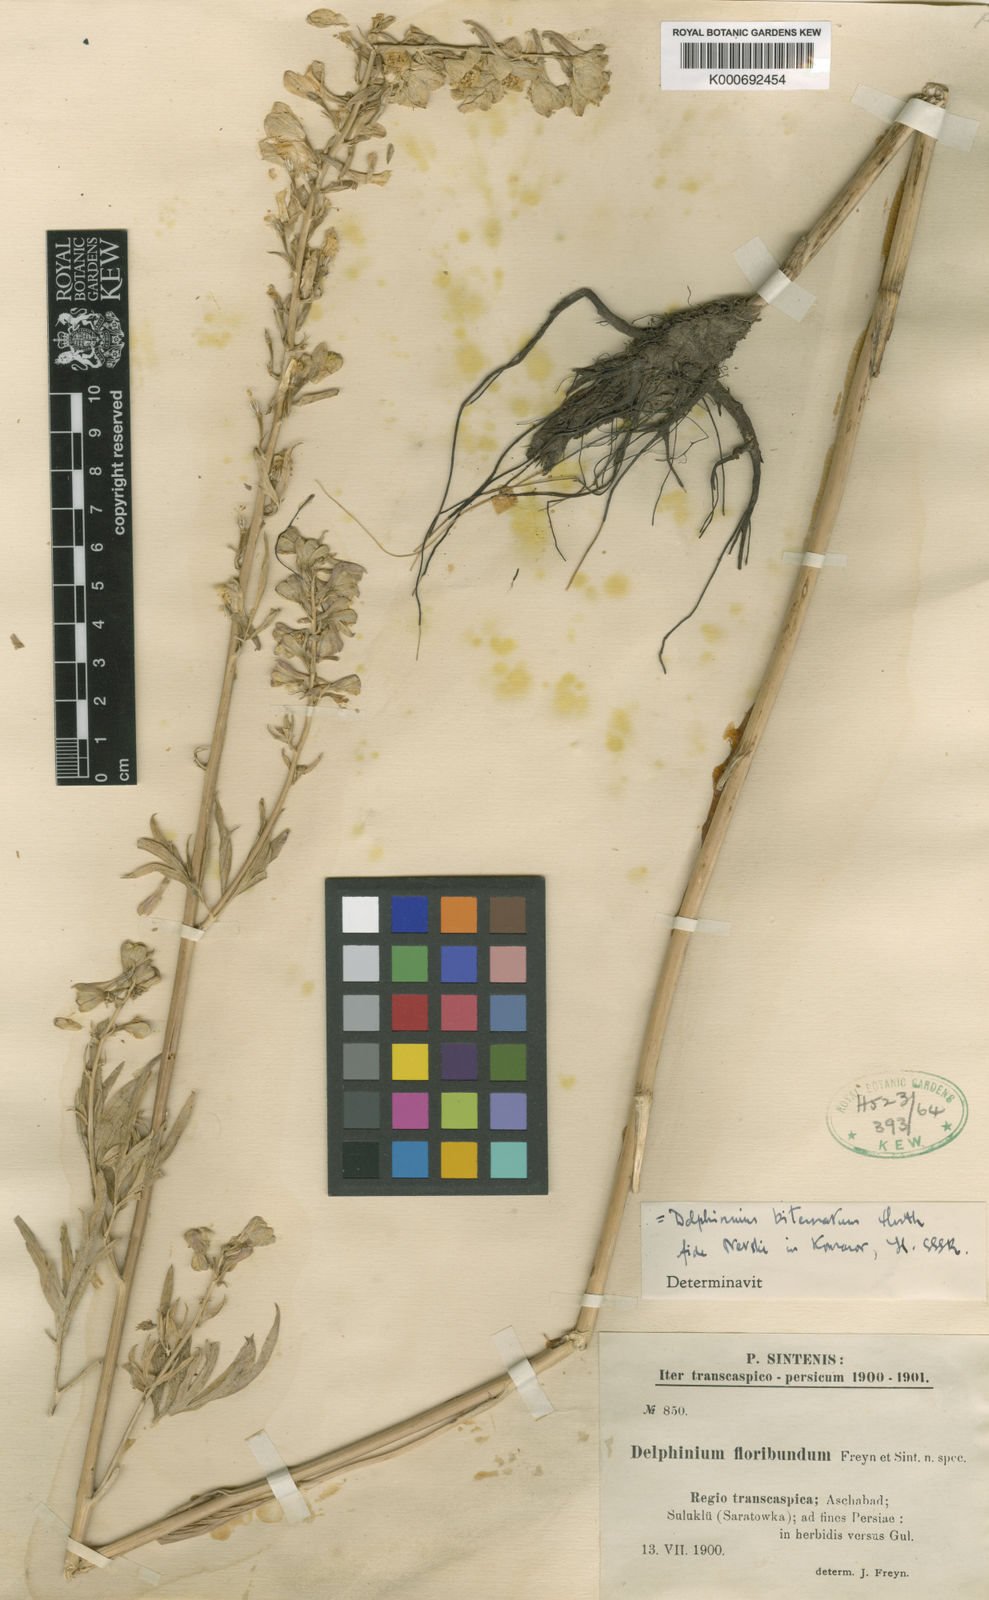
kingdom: Plantae
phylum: Tracheophyta
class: Magnoliopsida
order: Ranunculales
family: Ranunculaceae
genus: Delphinium
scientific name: Delphinium ternatum
